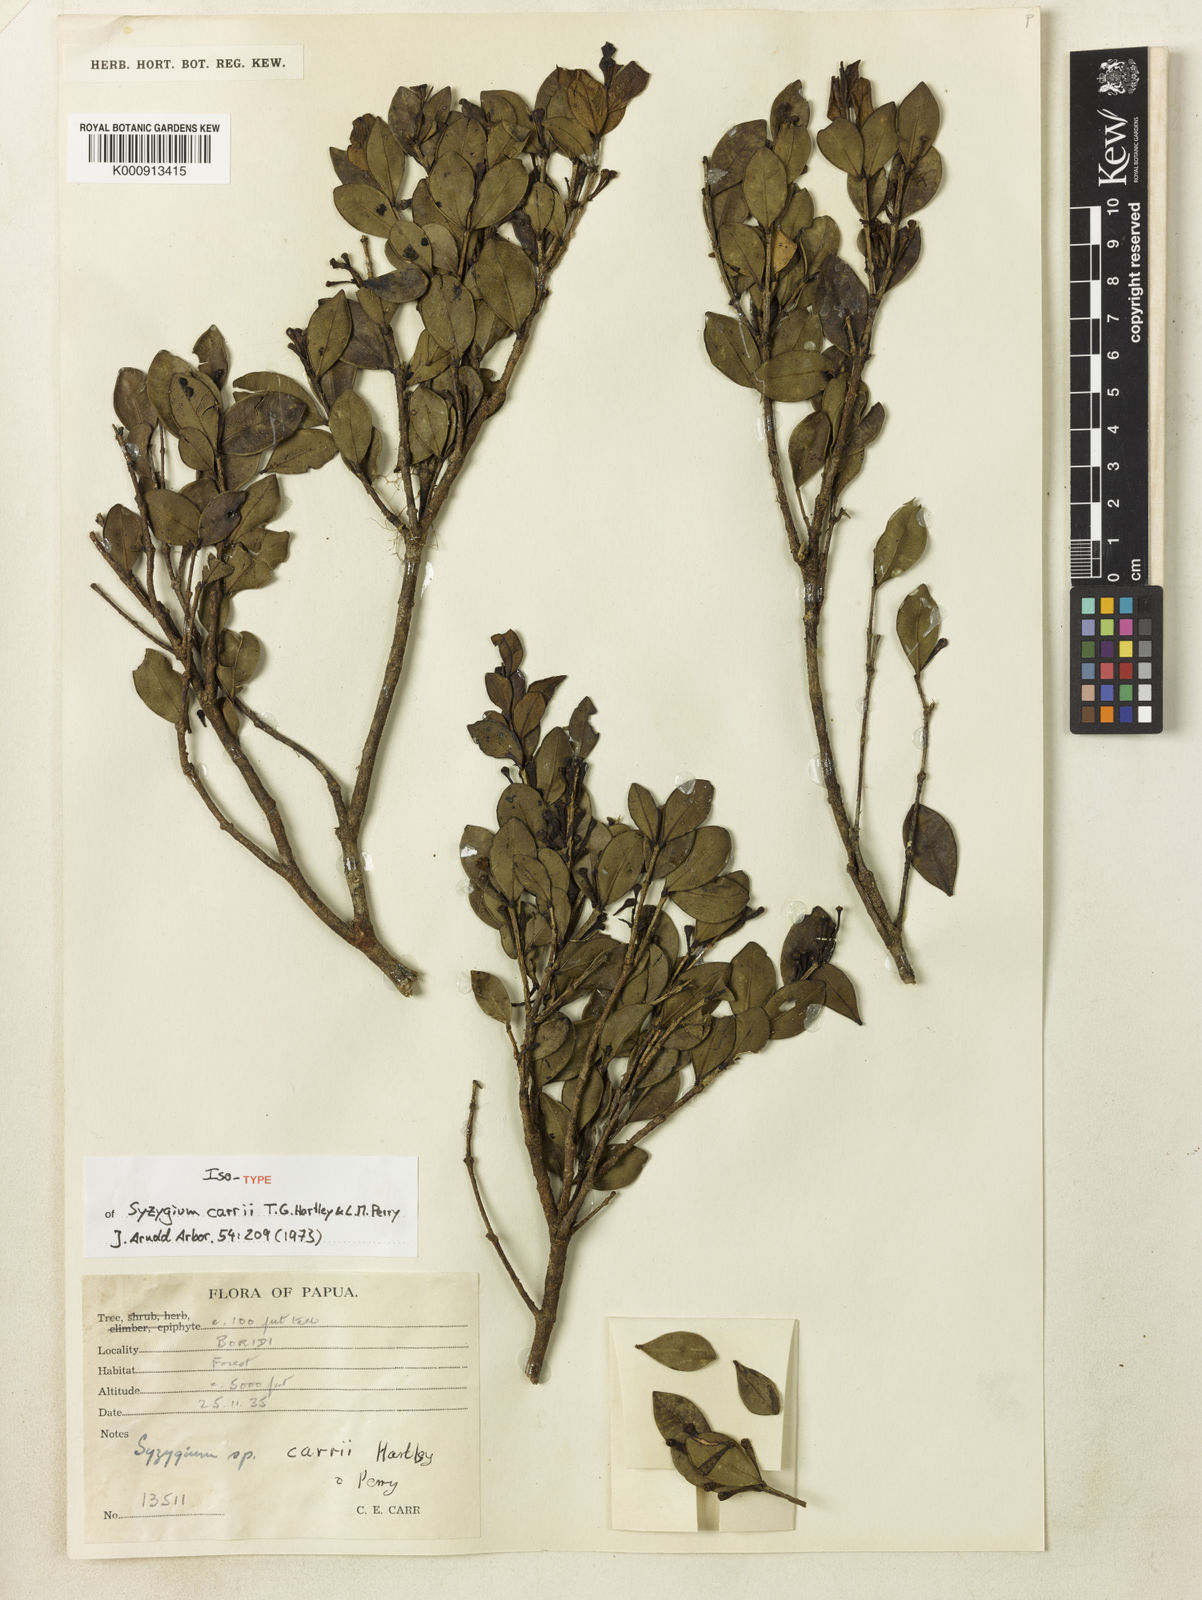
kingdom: Plantae
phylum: Tracheophyta
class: Magnoliopsida
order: Myrtales
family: Myrtaceae
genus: Syzygium
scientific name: Syzygium carrii
